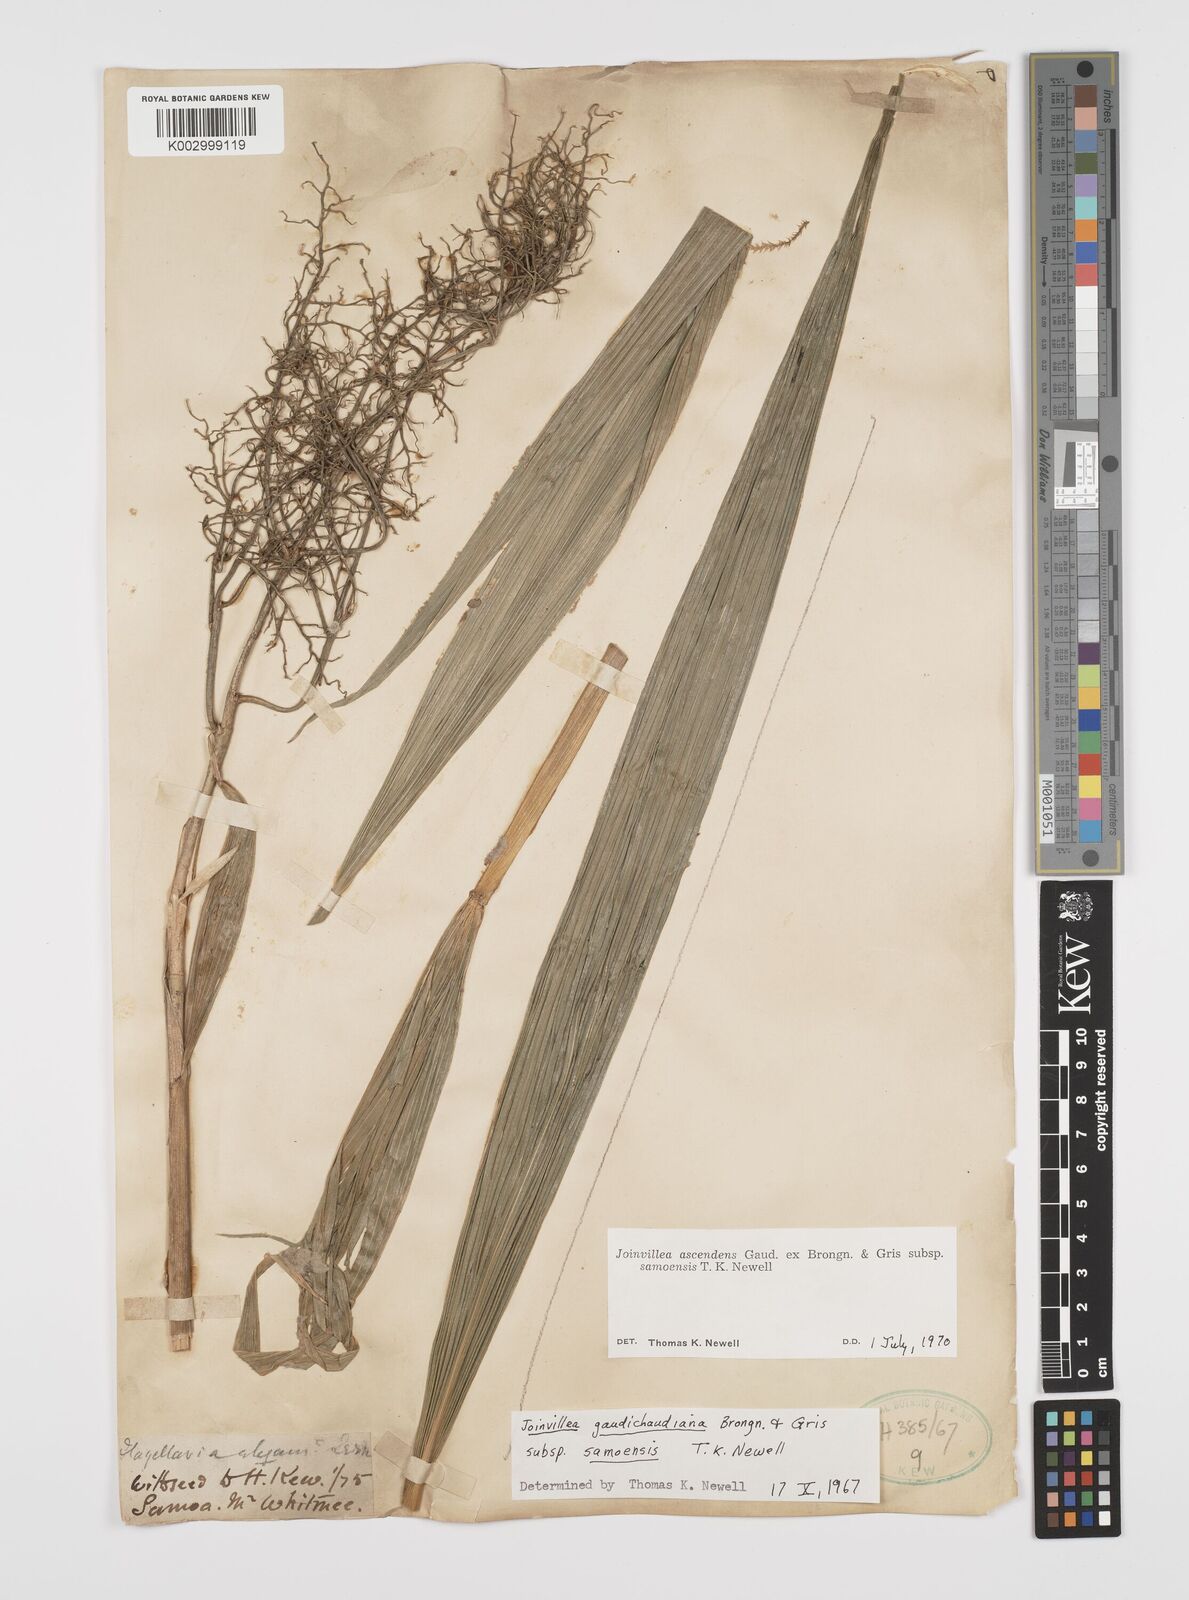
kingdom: Plantae
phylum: Tracheophyta
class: Liliopsida
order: Poales
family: Joinvilleaceae
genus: Joinvillea
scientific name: Joinvillea ascendens
